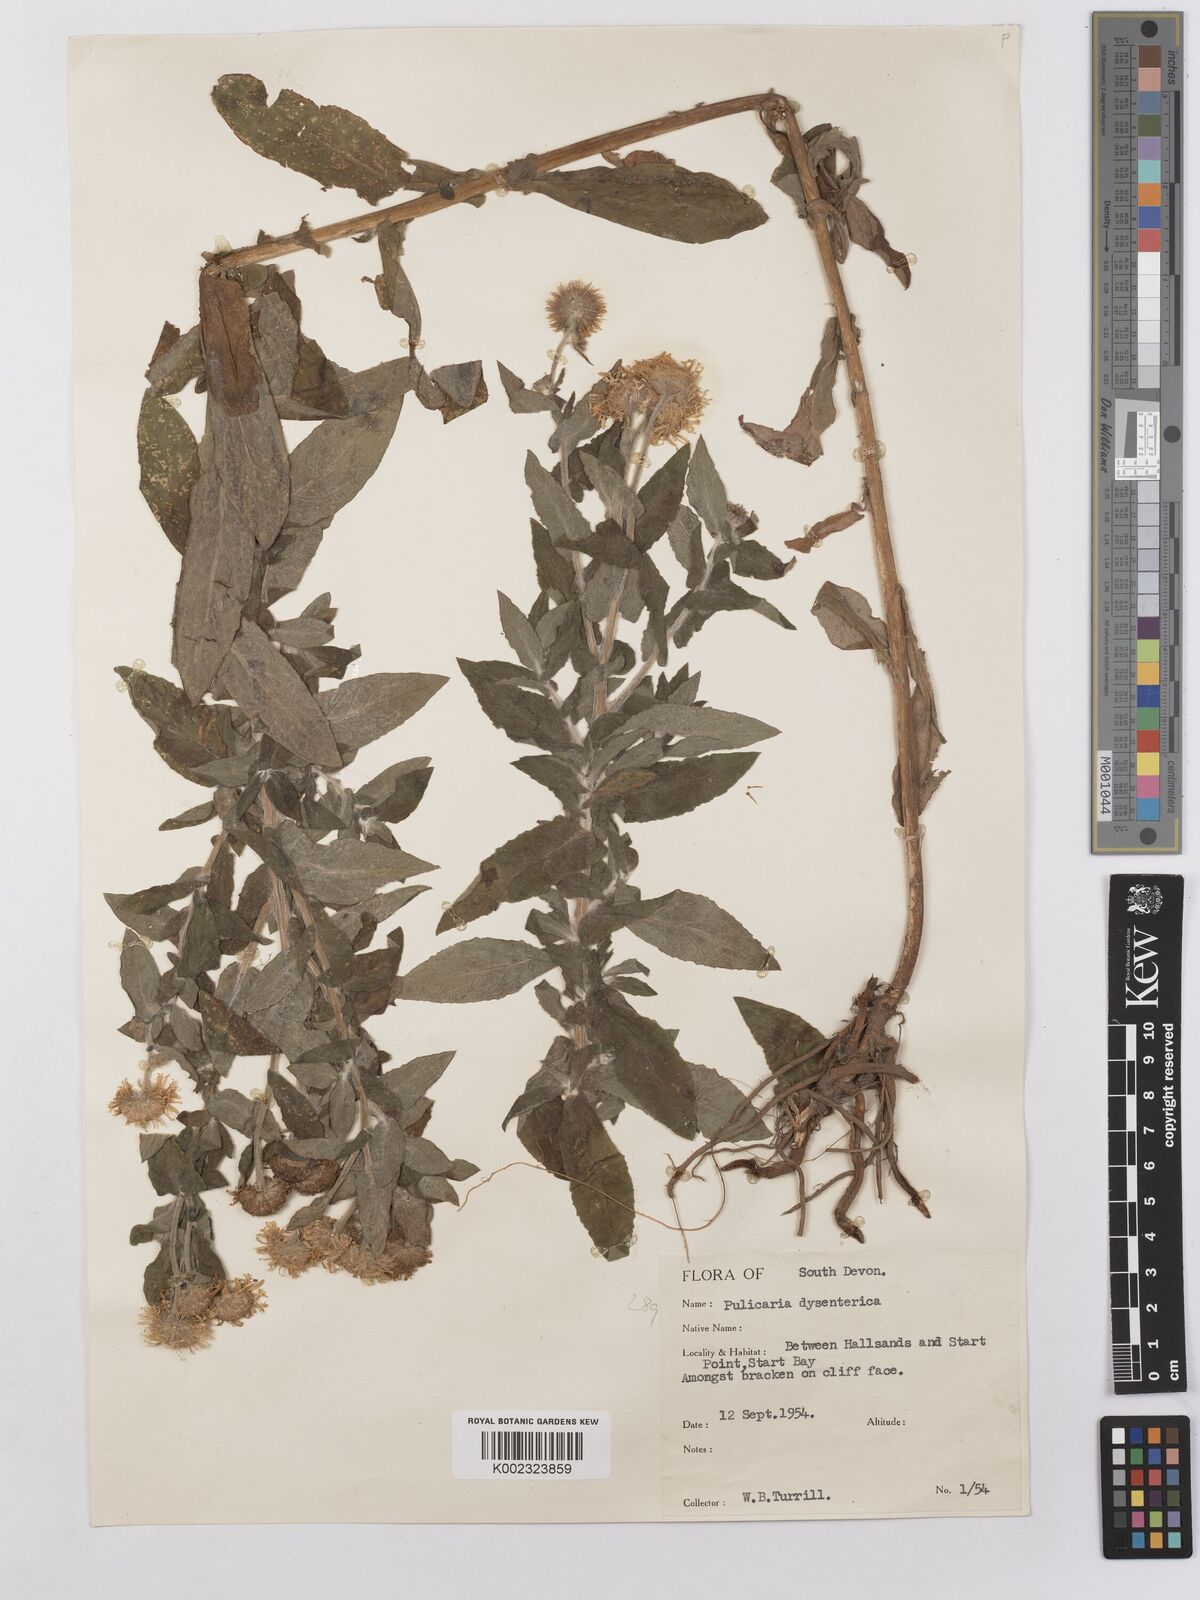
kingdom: Plantae
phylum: Tracheophyta
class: Magnoliopsida
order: Asterales
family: Asteraceae
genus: Pulicaria
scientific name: Pulicaria dysenterica
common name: Common fleabane
